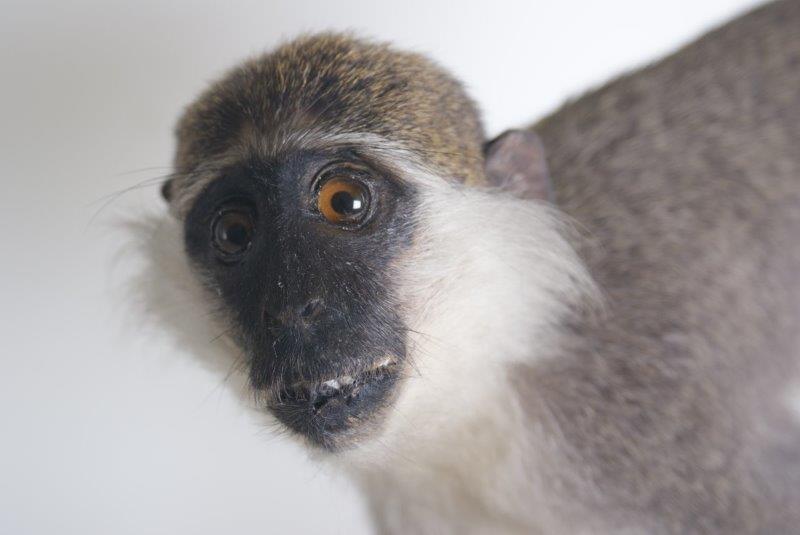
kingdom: Animalia
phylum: Chordata
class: Mammalia
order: Primates
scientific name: Primates
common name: Primates
